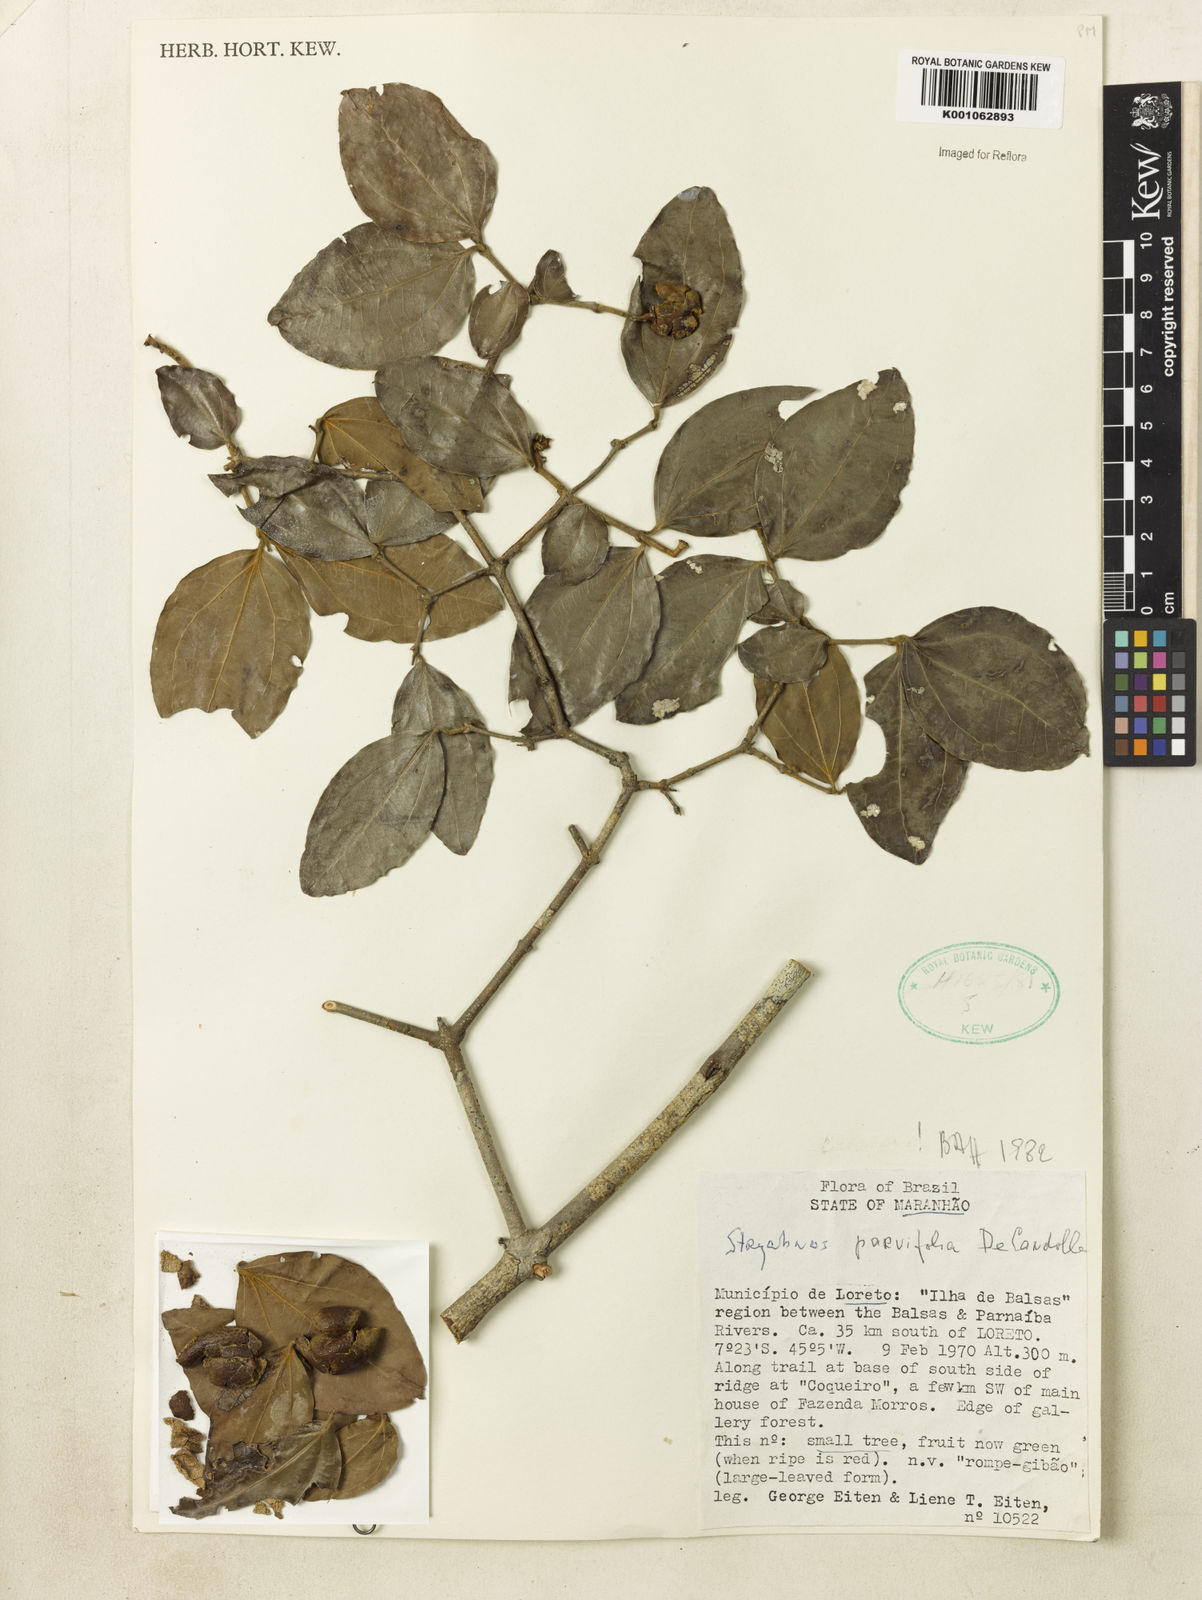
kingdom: Plantae
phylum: Tracheophyta
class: Magnoliopsida
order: Gentianales
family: Loganiaceae
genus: Strychnos
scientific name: Strychnos parvifolia
